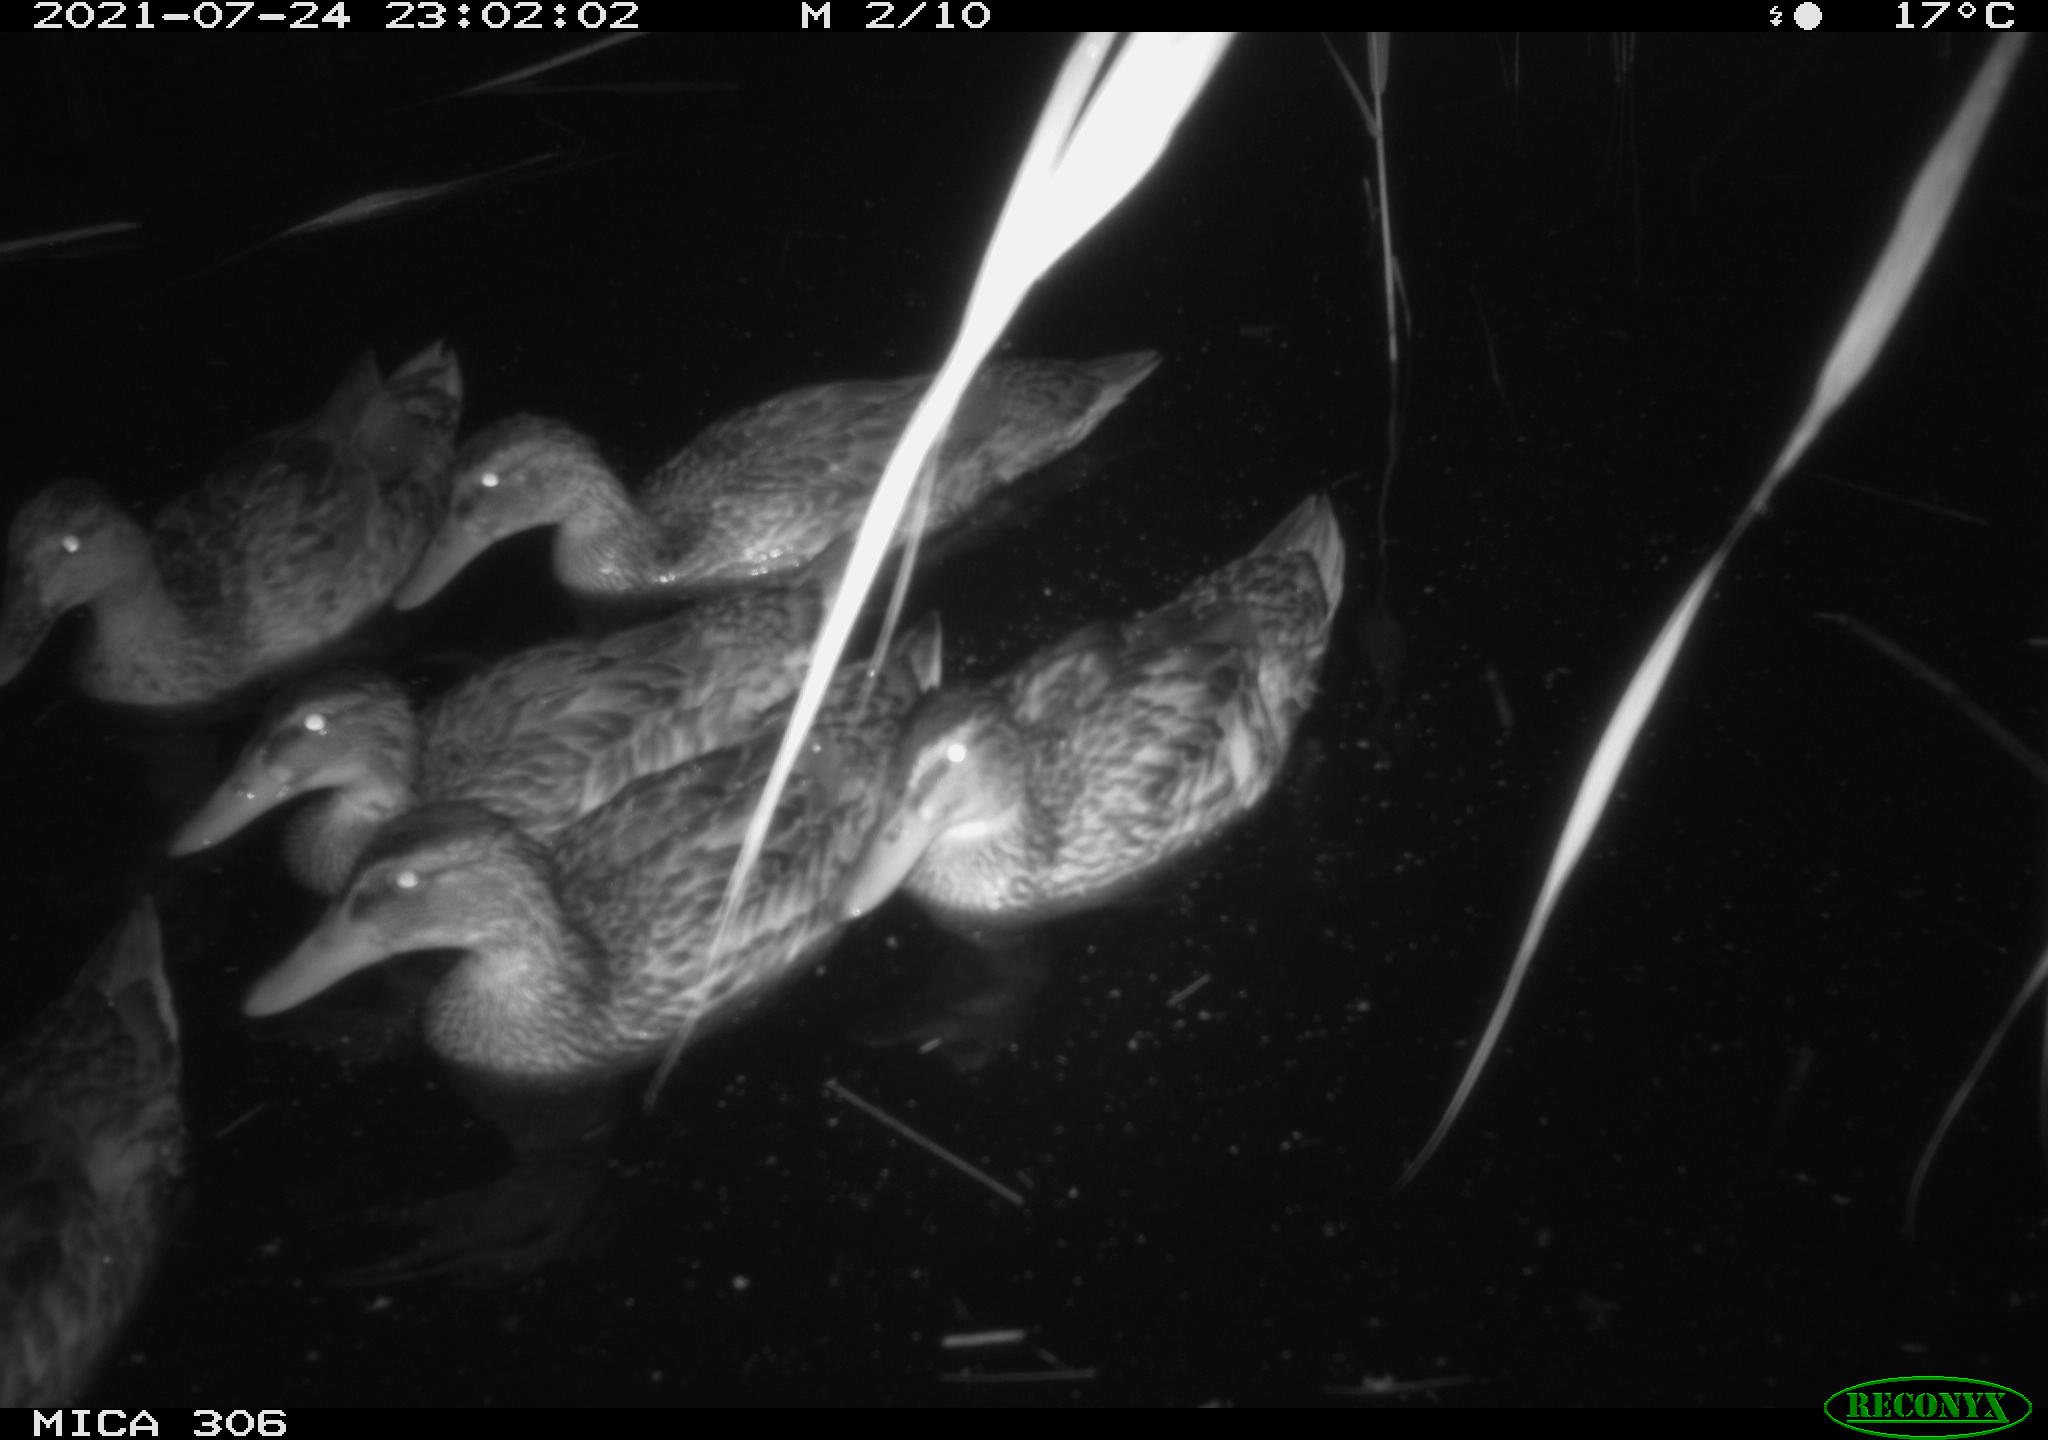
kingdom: Animalia
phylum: Chordata
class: Aves
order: Anseriformes
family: Anatidae
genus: Anas
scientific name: Anas
